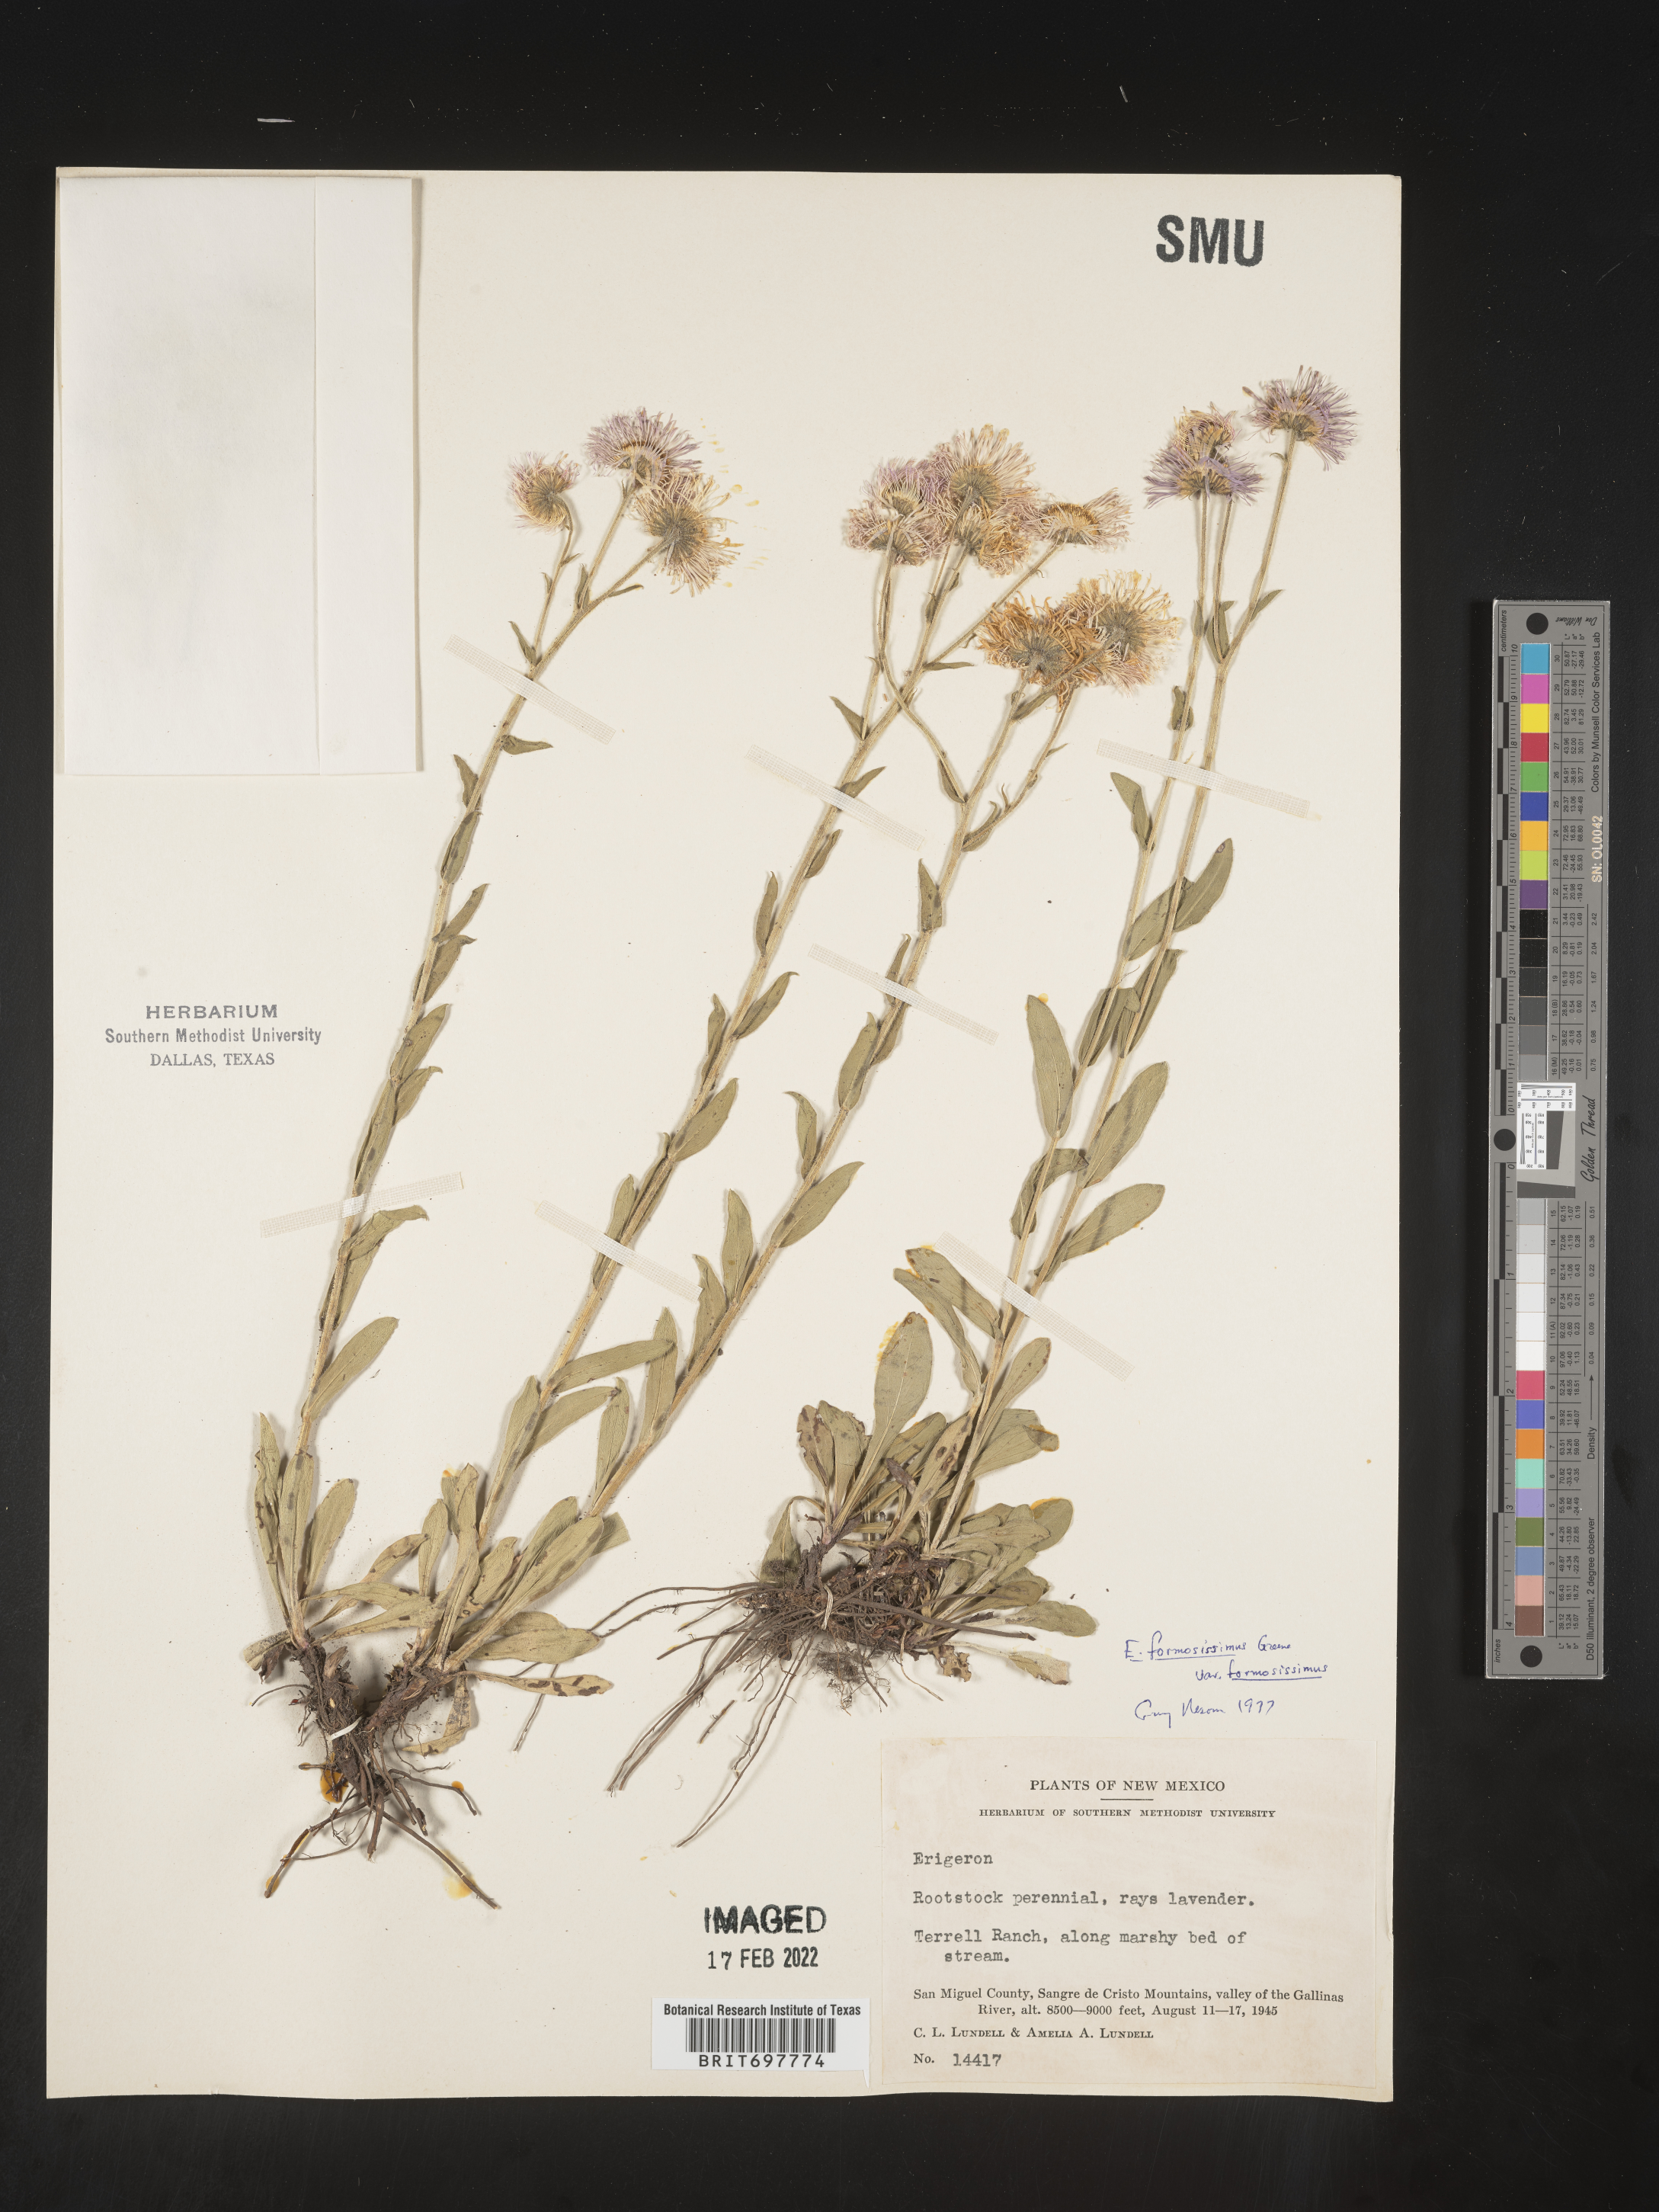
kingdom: Plantae
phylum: Tracheophyta
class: Magnoliopsida
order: Asterales
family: Asteraceae
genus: Erigeron
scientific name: Erigeron formosissimus
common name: Beautiful fleabane
